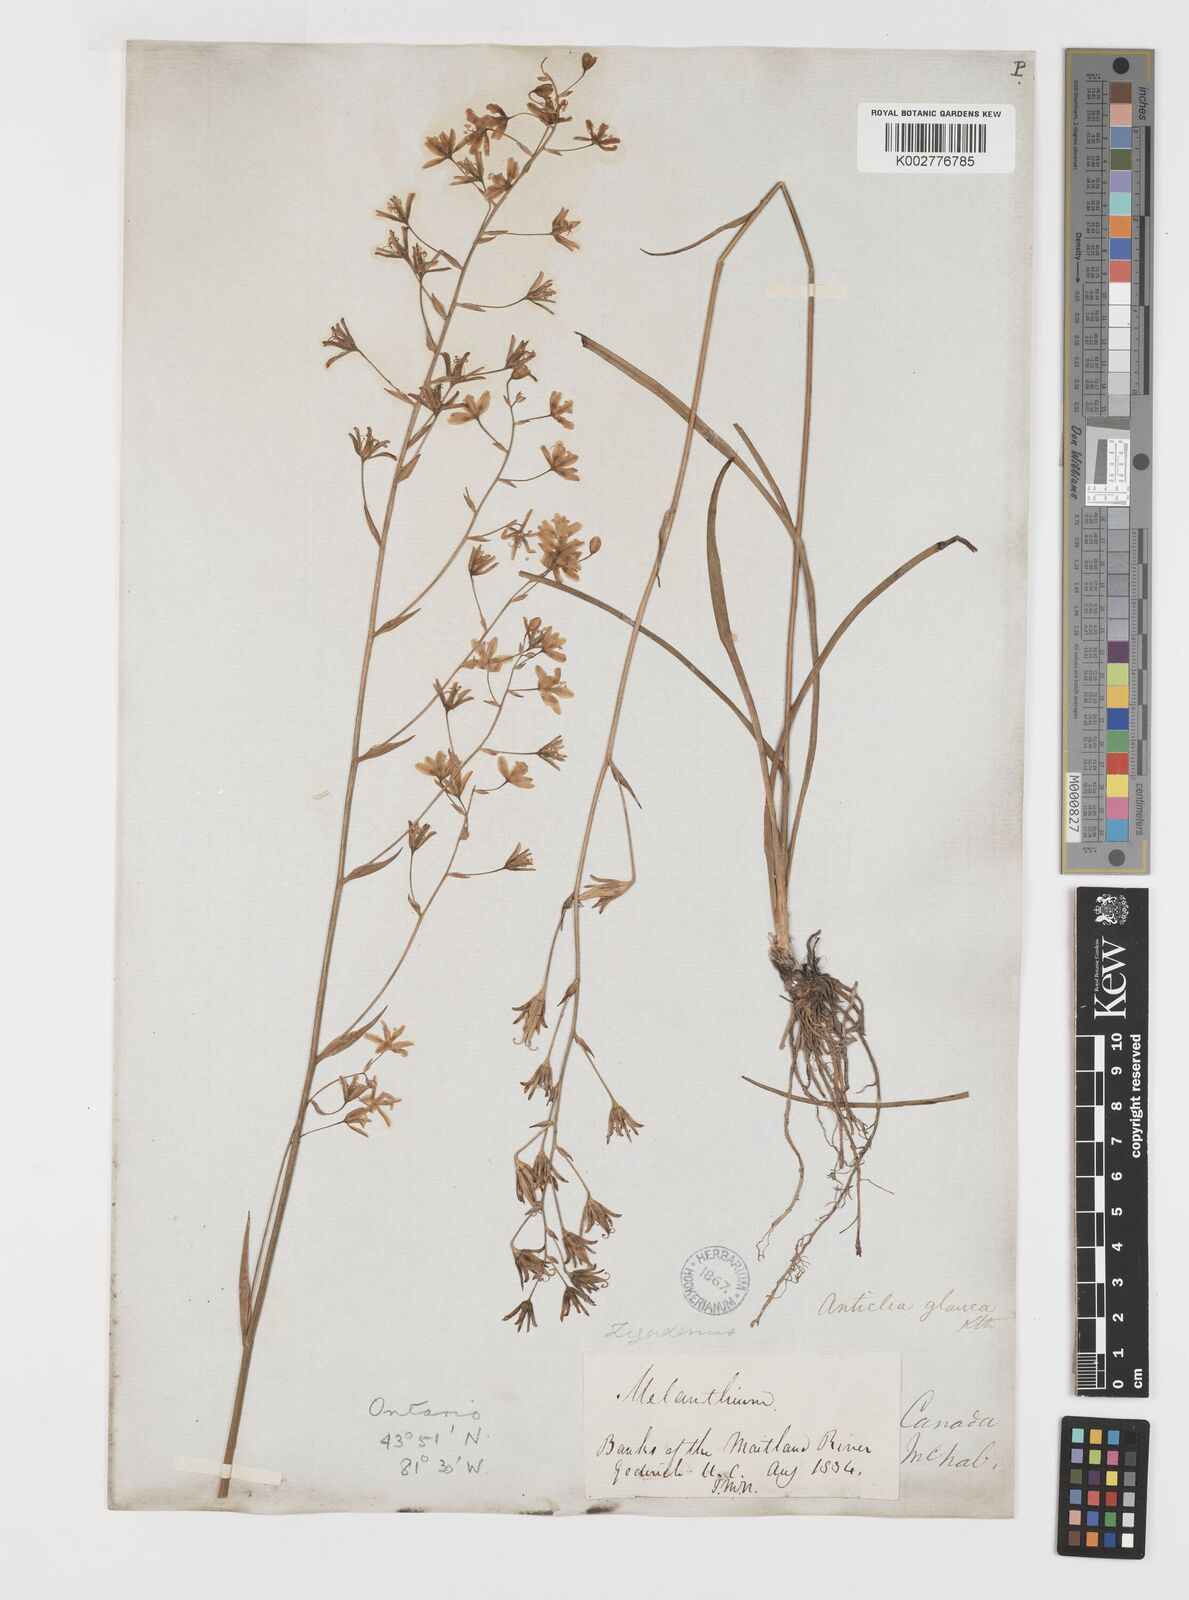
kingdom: Plantae
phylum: Tracheophyta
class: Liliopsida
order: Liliales
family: Melanthiaceae
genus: Anticlea
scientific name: Anticlea elegans
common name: Mountain death camas
